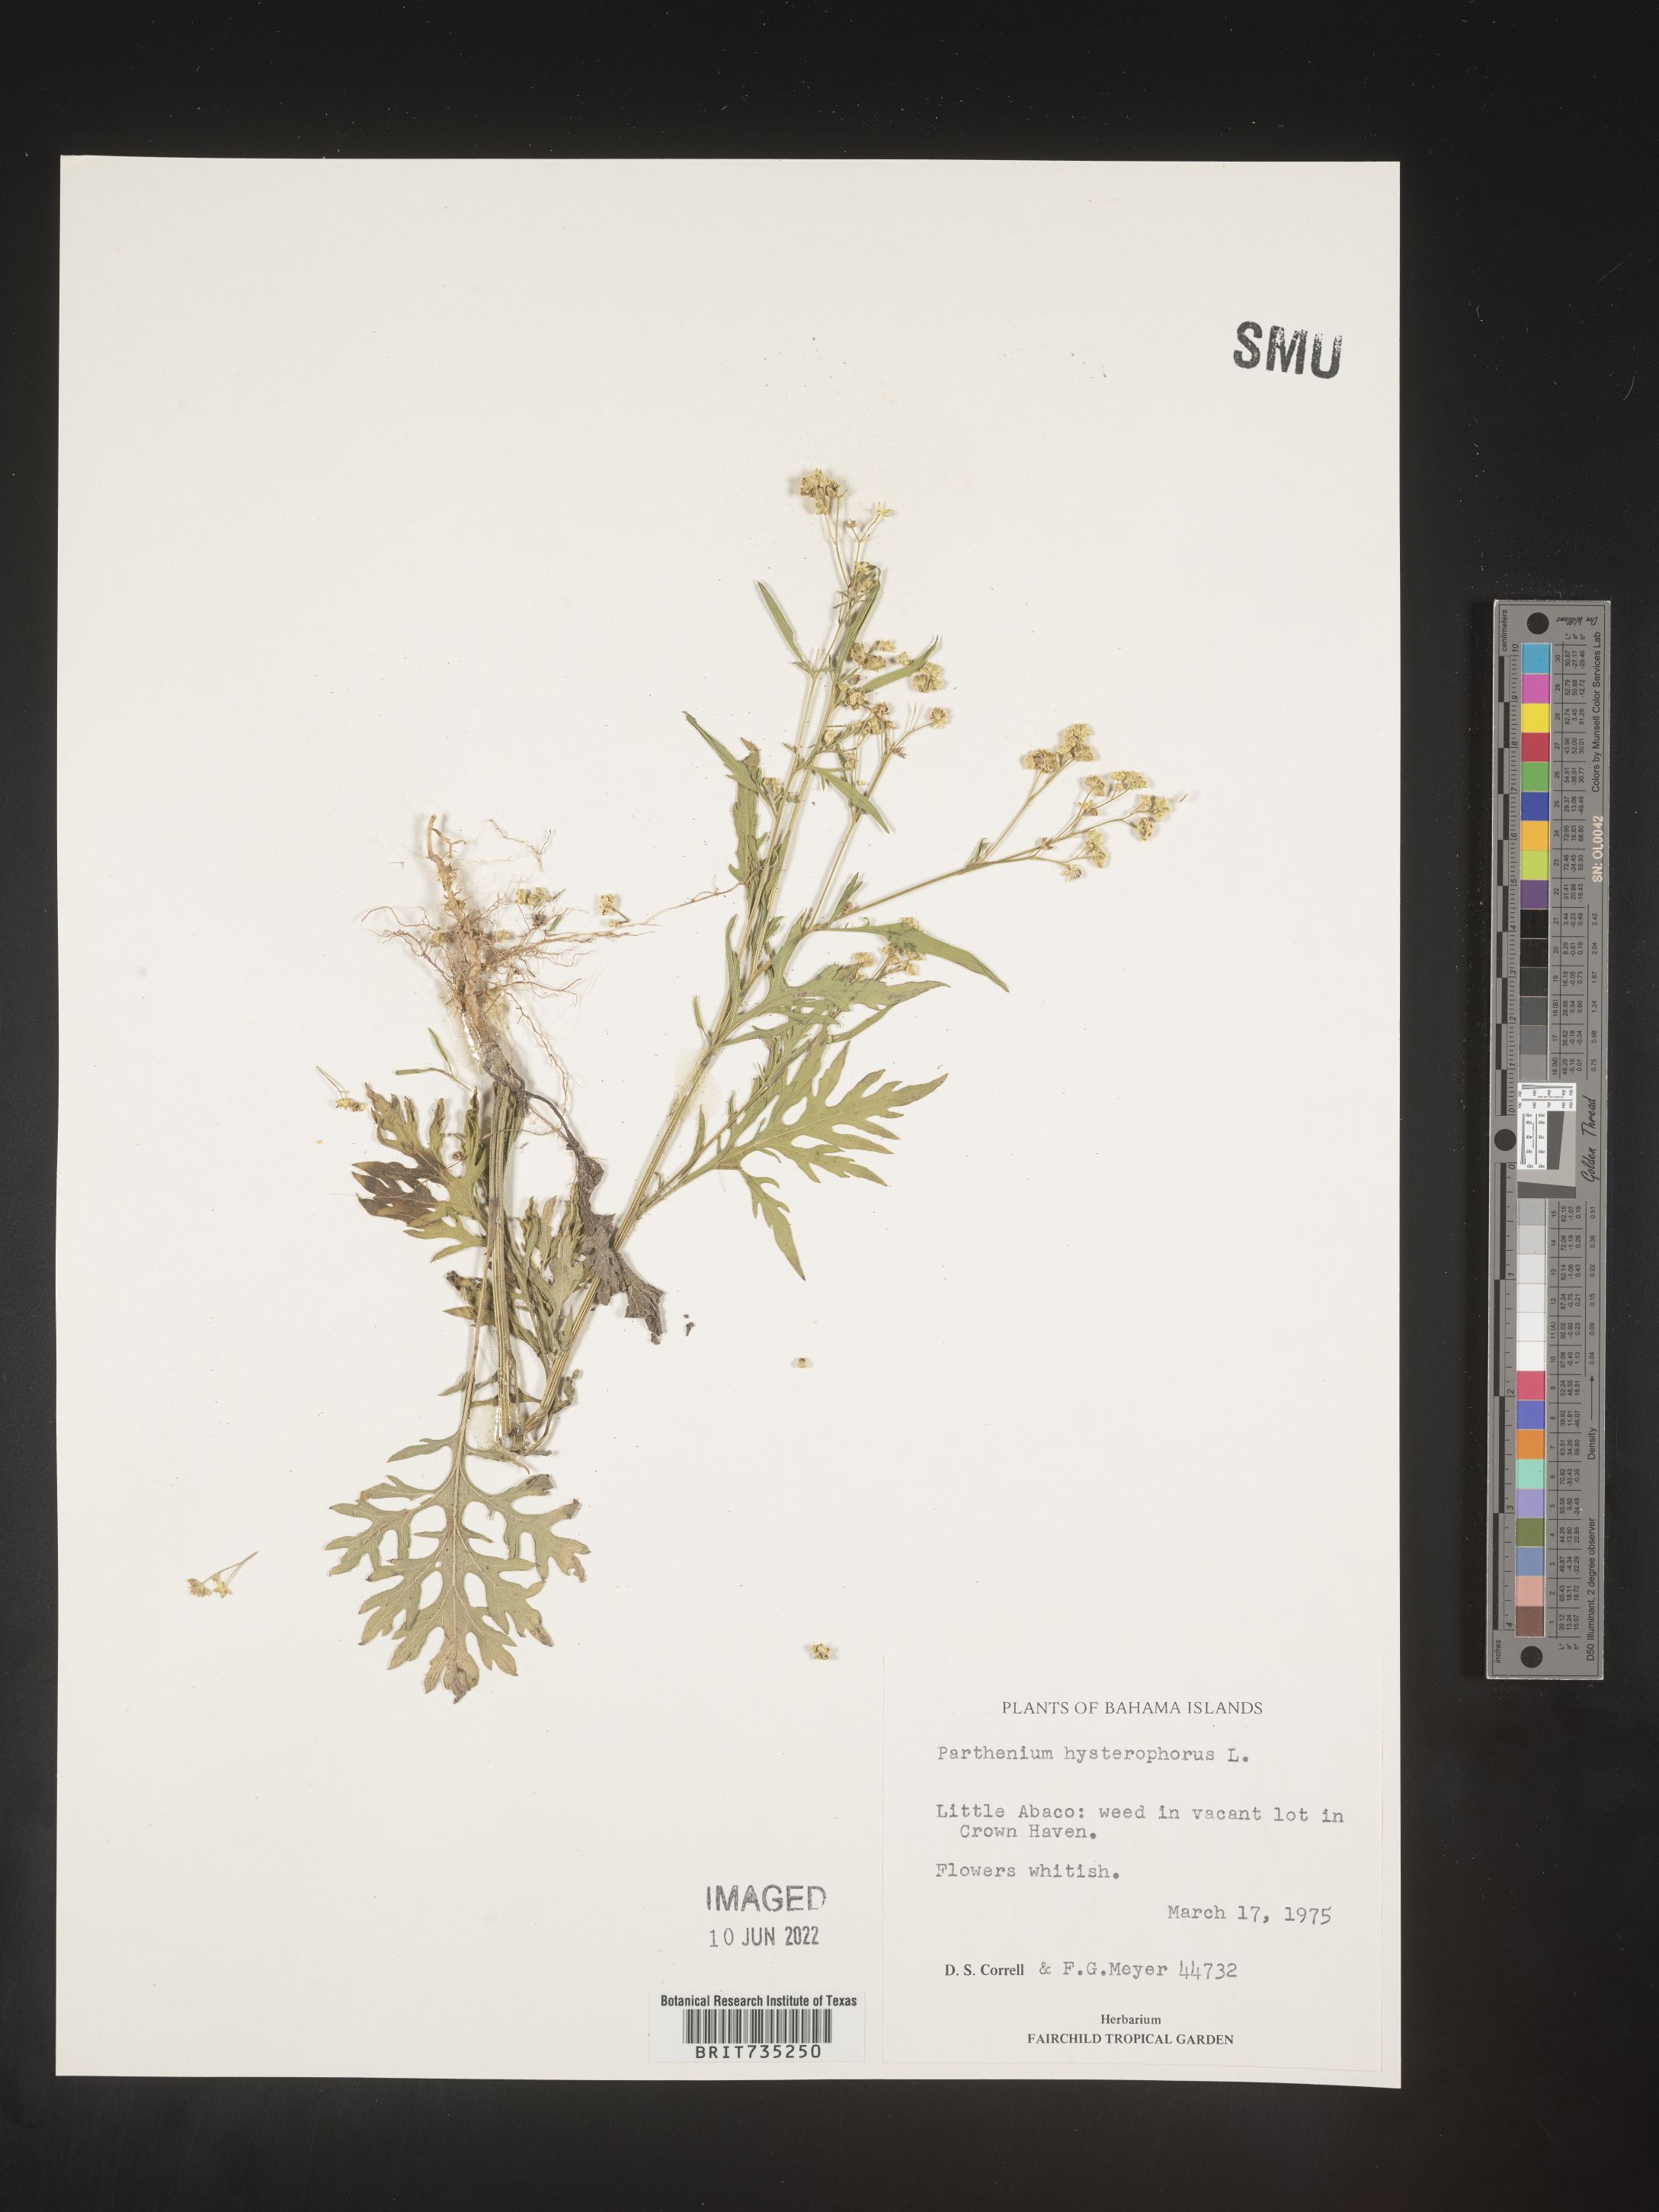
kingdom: Plantae
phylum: Tracheophyta
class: Magnoliopsida
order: Asterales
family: Asteraceae
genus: Parthenium
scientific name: Parthenium
